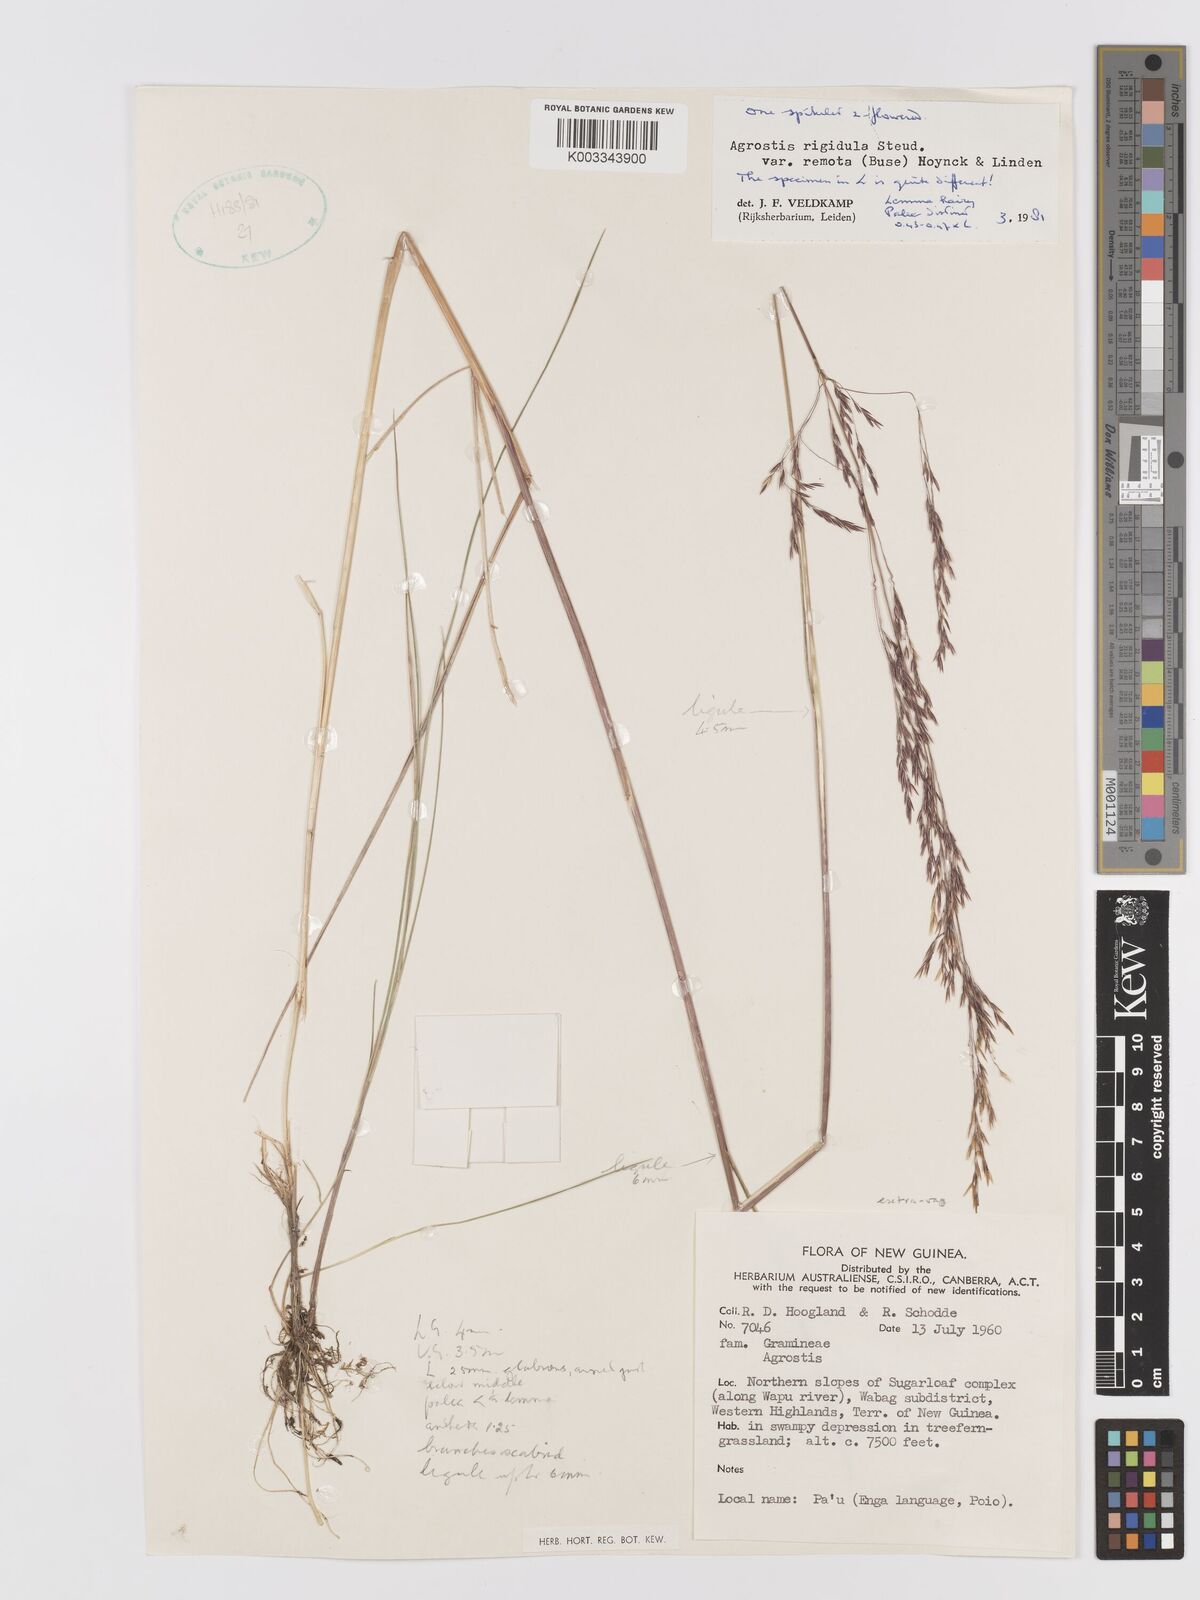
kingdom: Plantae
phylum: Tracheophyta
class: Liliopsida
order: Poales
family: Poaceae
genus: Agrostis
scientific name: Agrostis infirma
